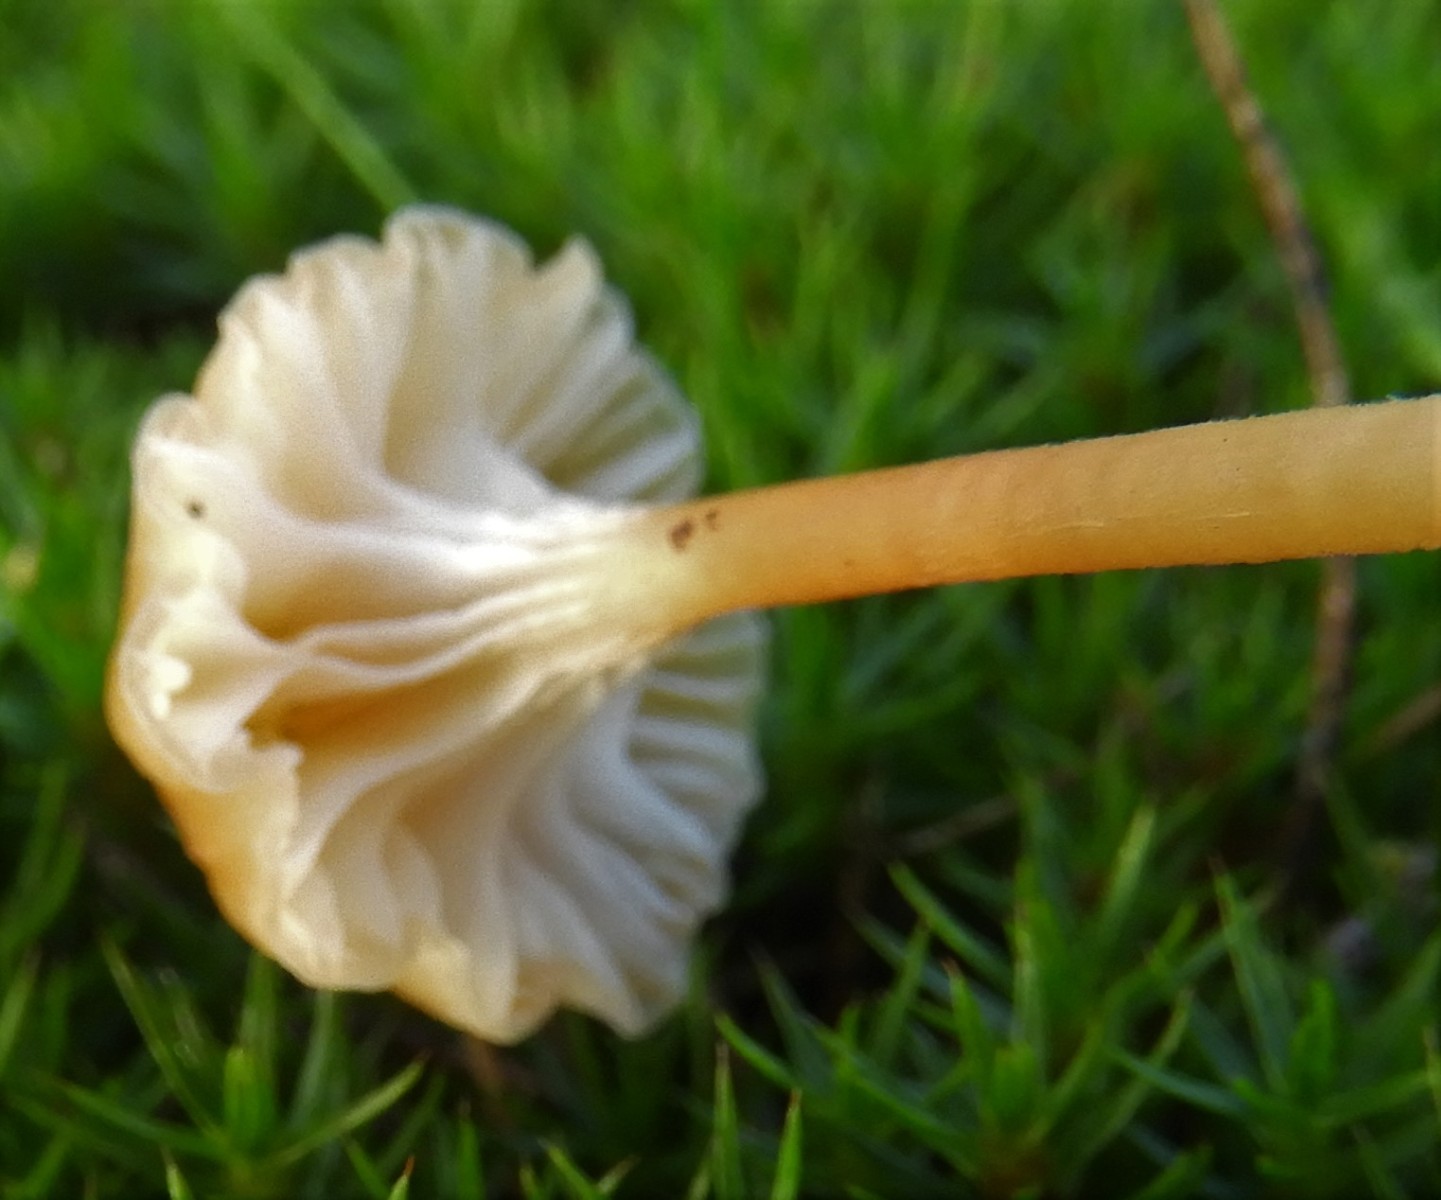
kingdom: Fungi
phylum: Basidiomycota
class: Agaricomycetes
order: Hymenochaetales
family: Rickenellaceae
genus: Rickenella
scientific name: Rickenella fibula
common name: orange mosnavlehat
